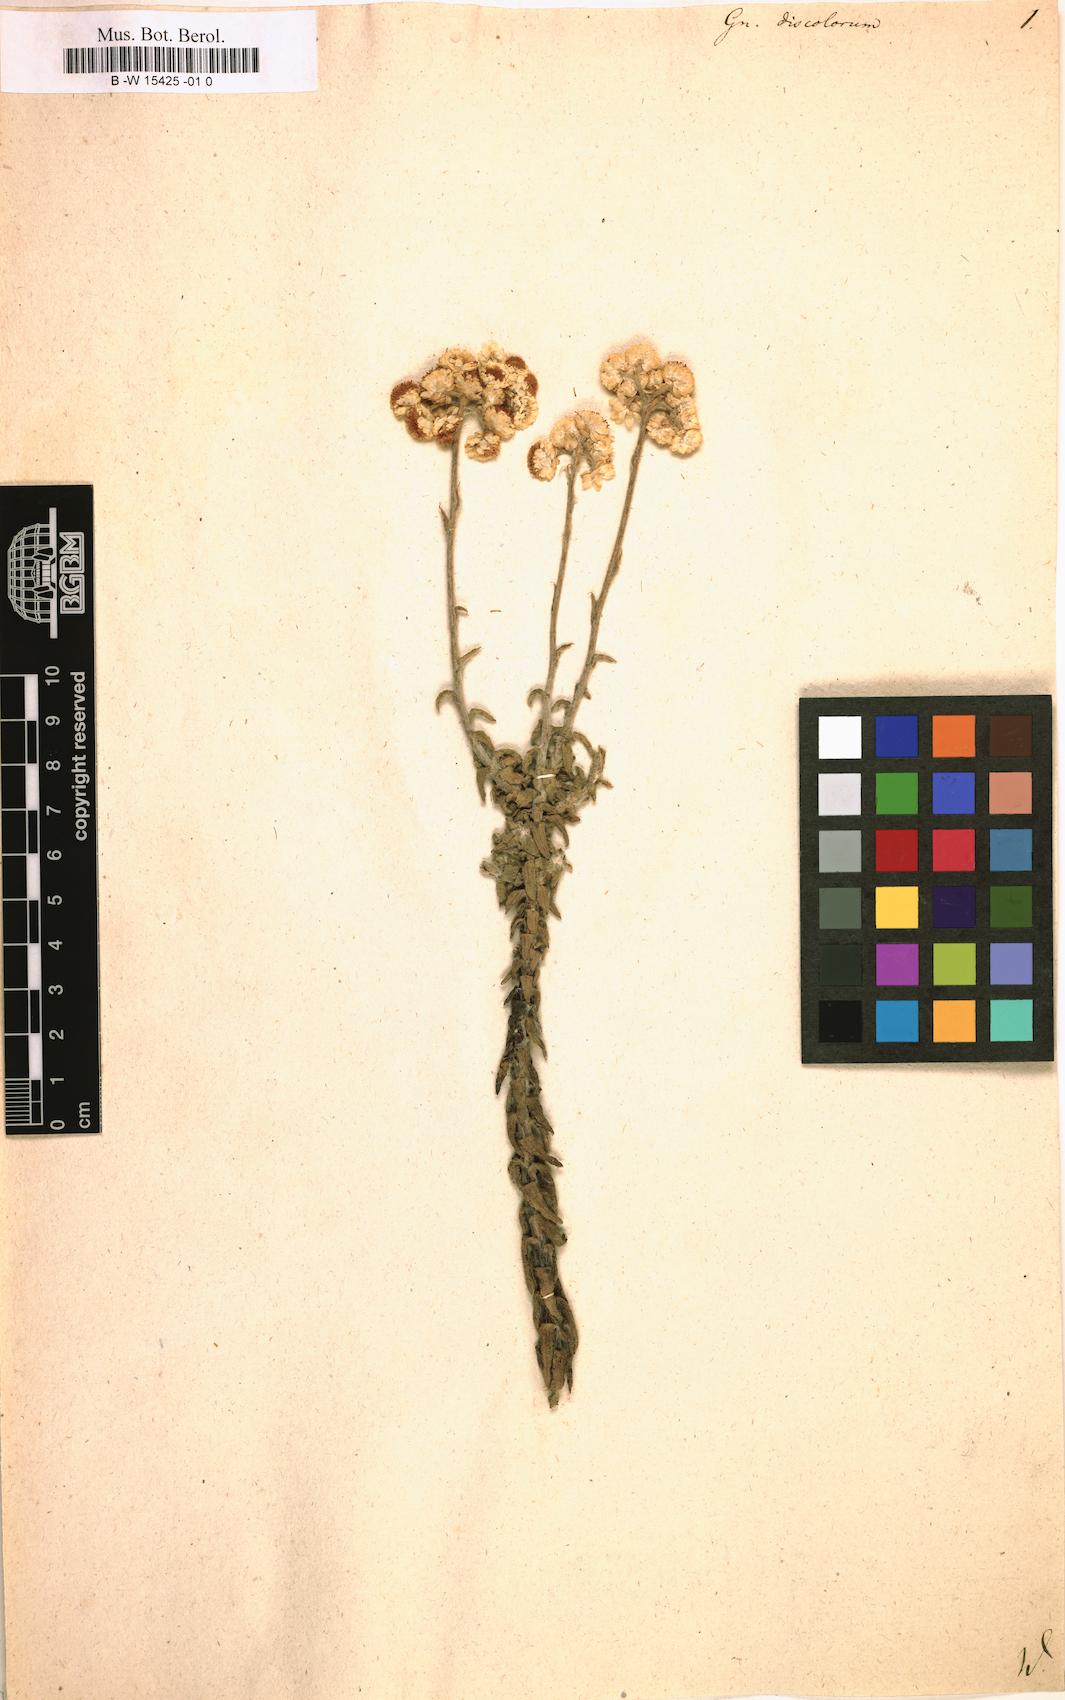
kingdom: Plantae
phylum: Tracheophyta
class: Magnoliopsida
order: Asterales
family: Asteraceae
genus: Helichrysum
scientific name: Helichrysum
